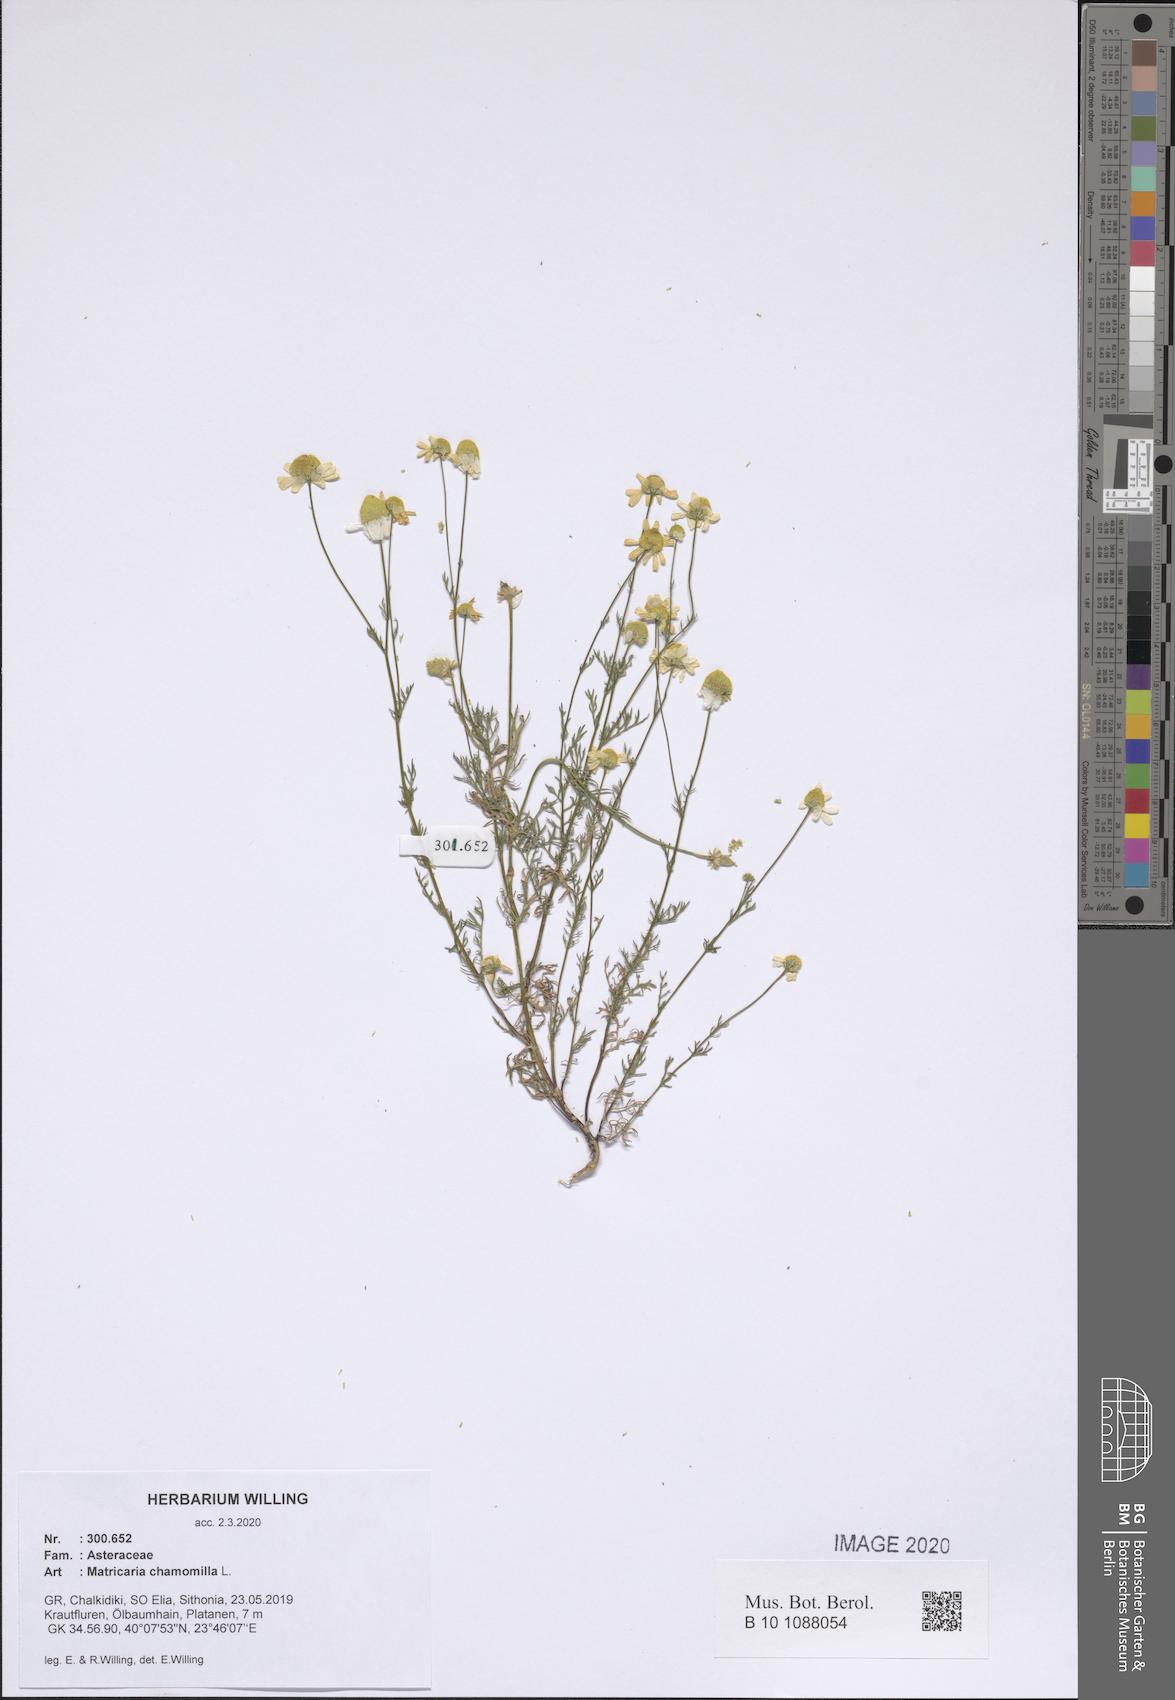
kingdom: Plantae
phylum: Tracheophyta
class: Magnoliopsida
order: Asterales
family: Asteraceae
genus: Matricaria
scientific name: Matricaria chamomilla
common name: Scented mayweed
